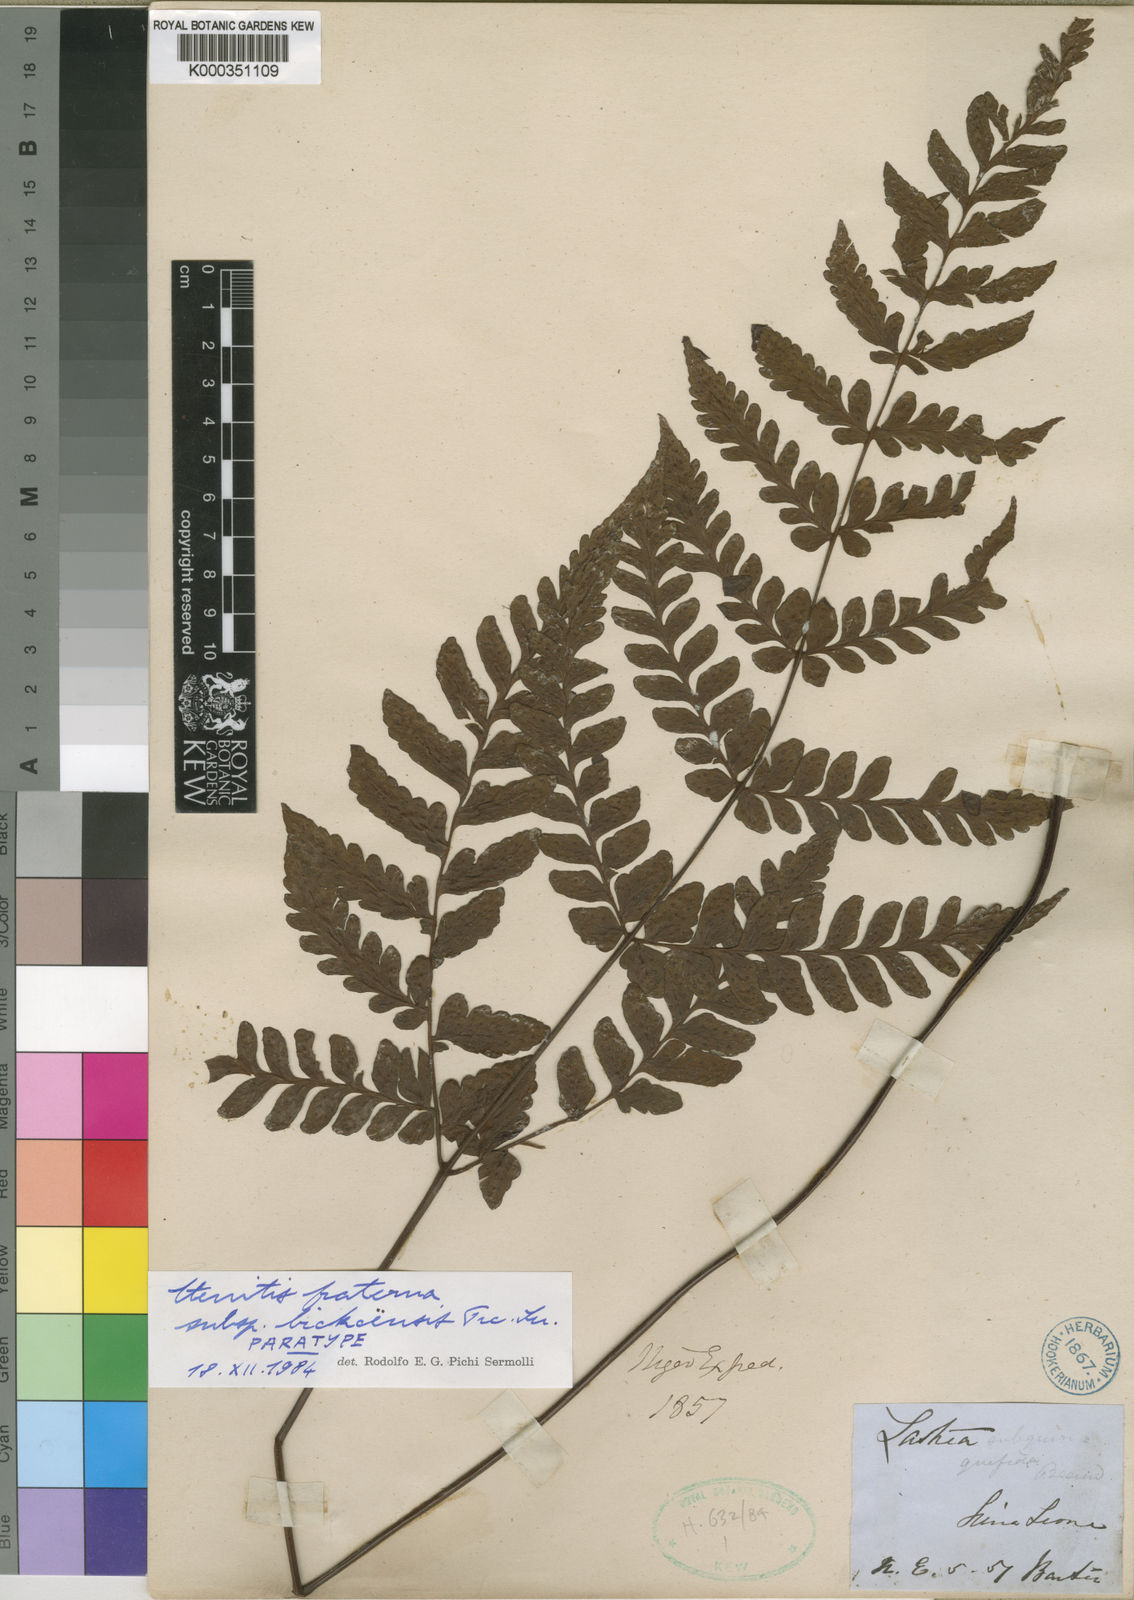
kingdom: Plantae
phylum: Tracheophyta
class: Polypodiopsida
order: Polypodiales
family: Tectariaceae
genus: Triplophyllum
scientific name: Triplophyllum gabonense
